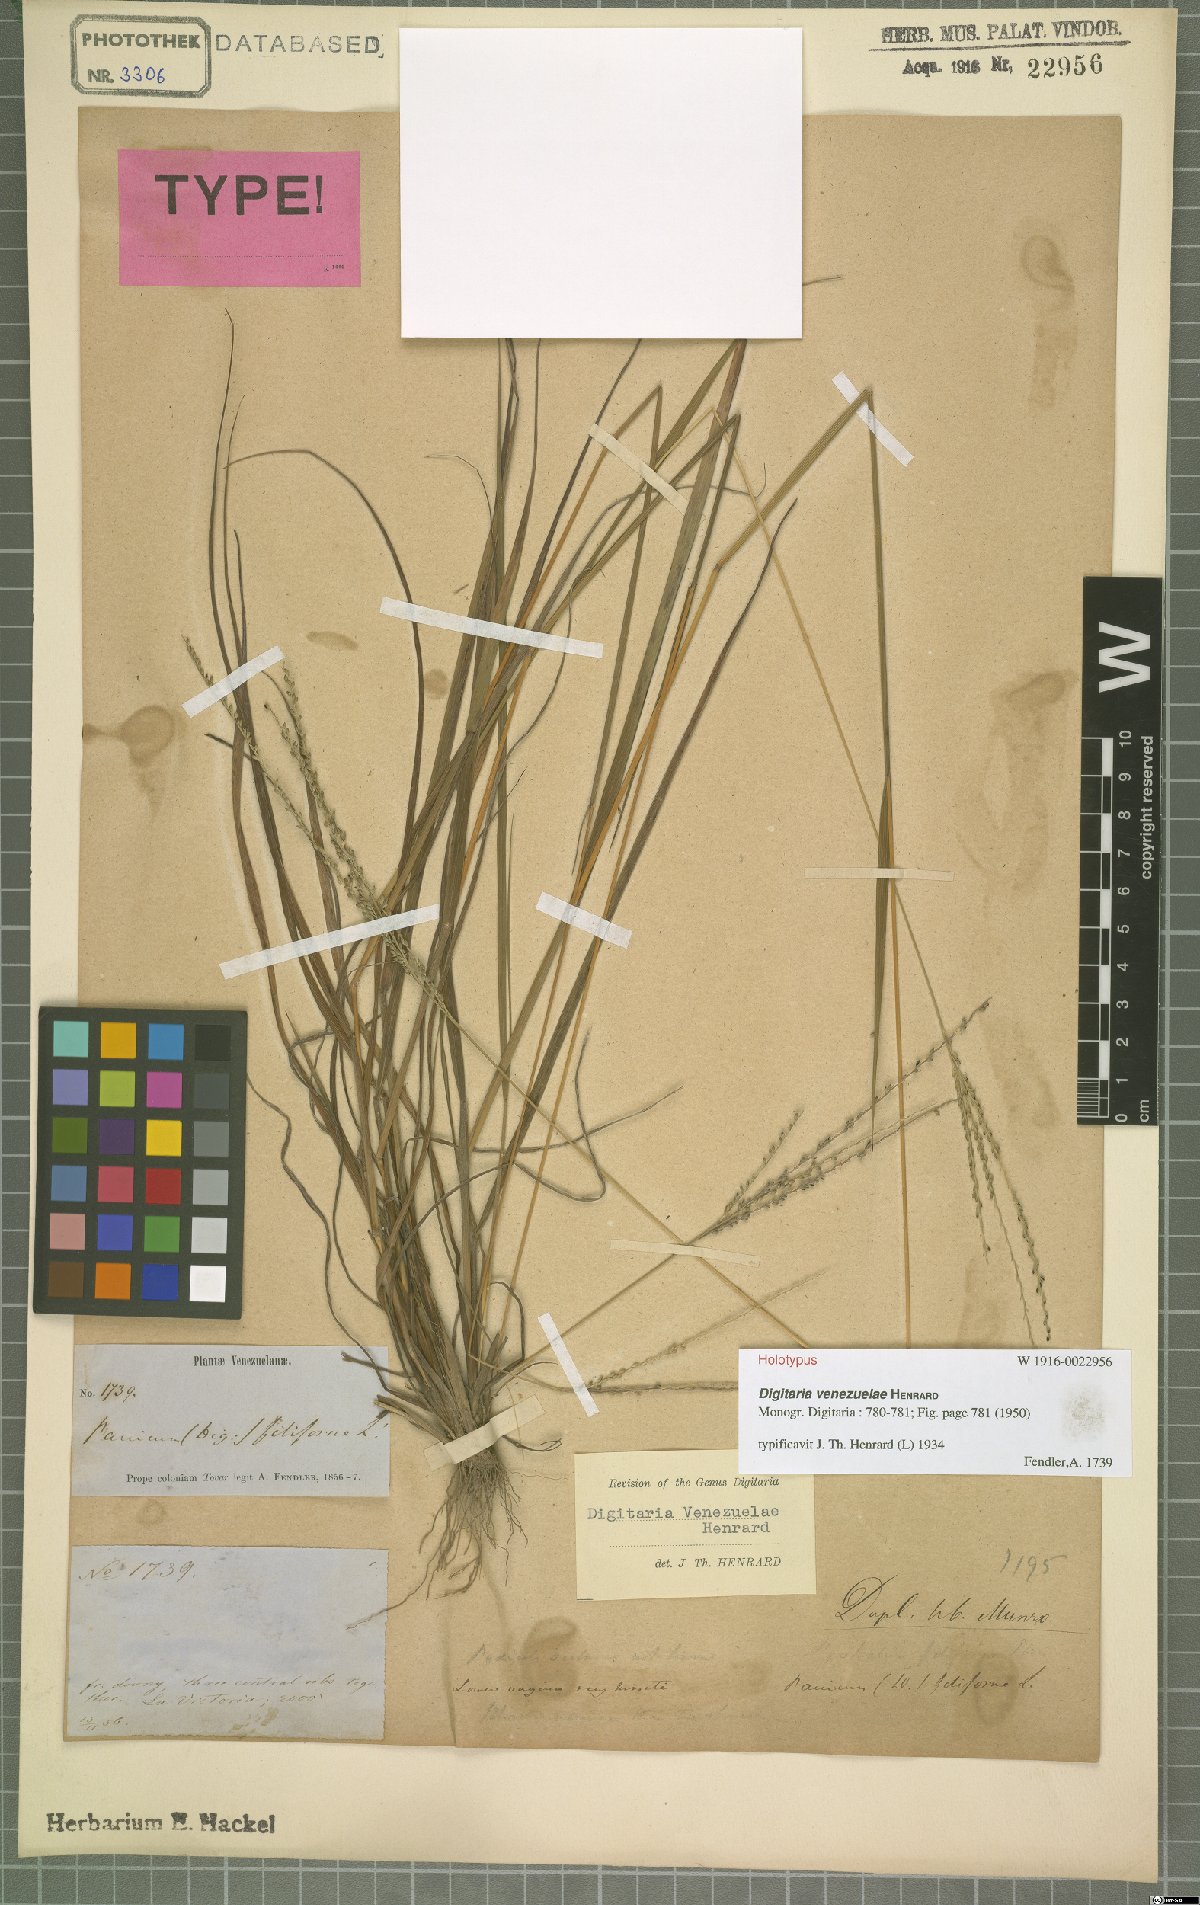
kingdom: Plantae
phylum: Tracheophyta
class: Liliopsida
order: Poales
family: Poaceae
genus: Digitaria
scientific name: Digitaria venezuelae
